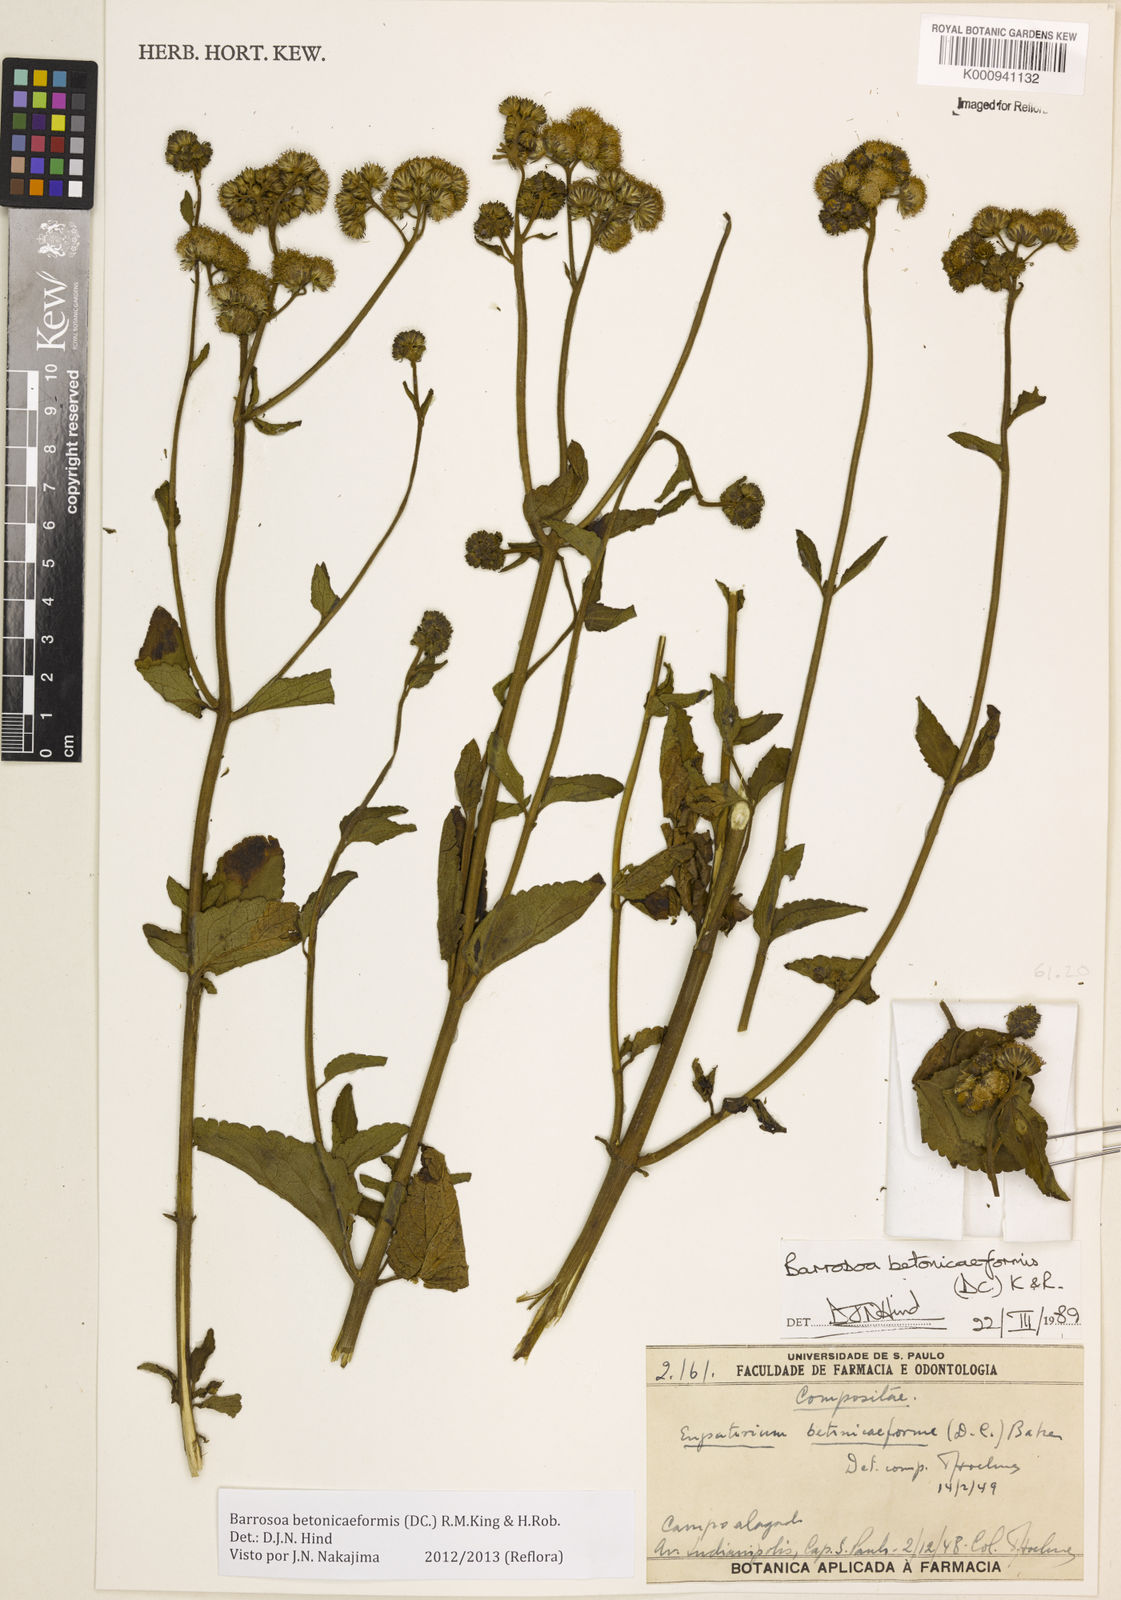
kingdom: Plantae
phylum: Tracheophyta
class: Magnoliopsida
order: Asterales
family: Asteraceae
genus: Barrosoa
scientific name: Barrosoa betoniciformis
